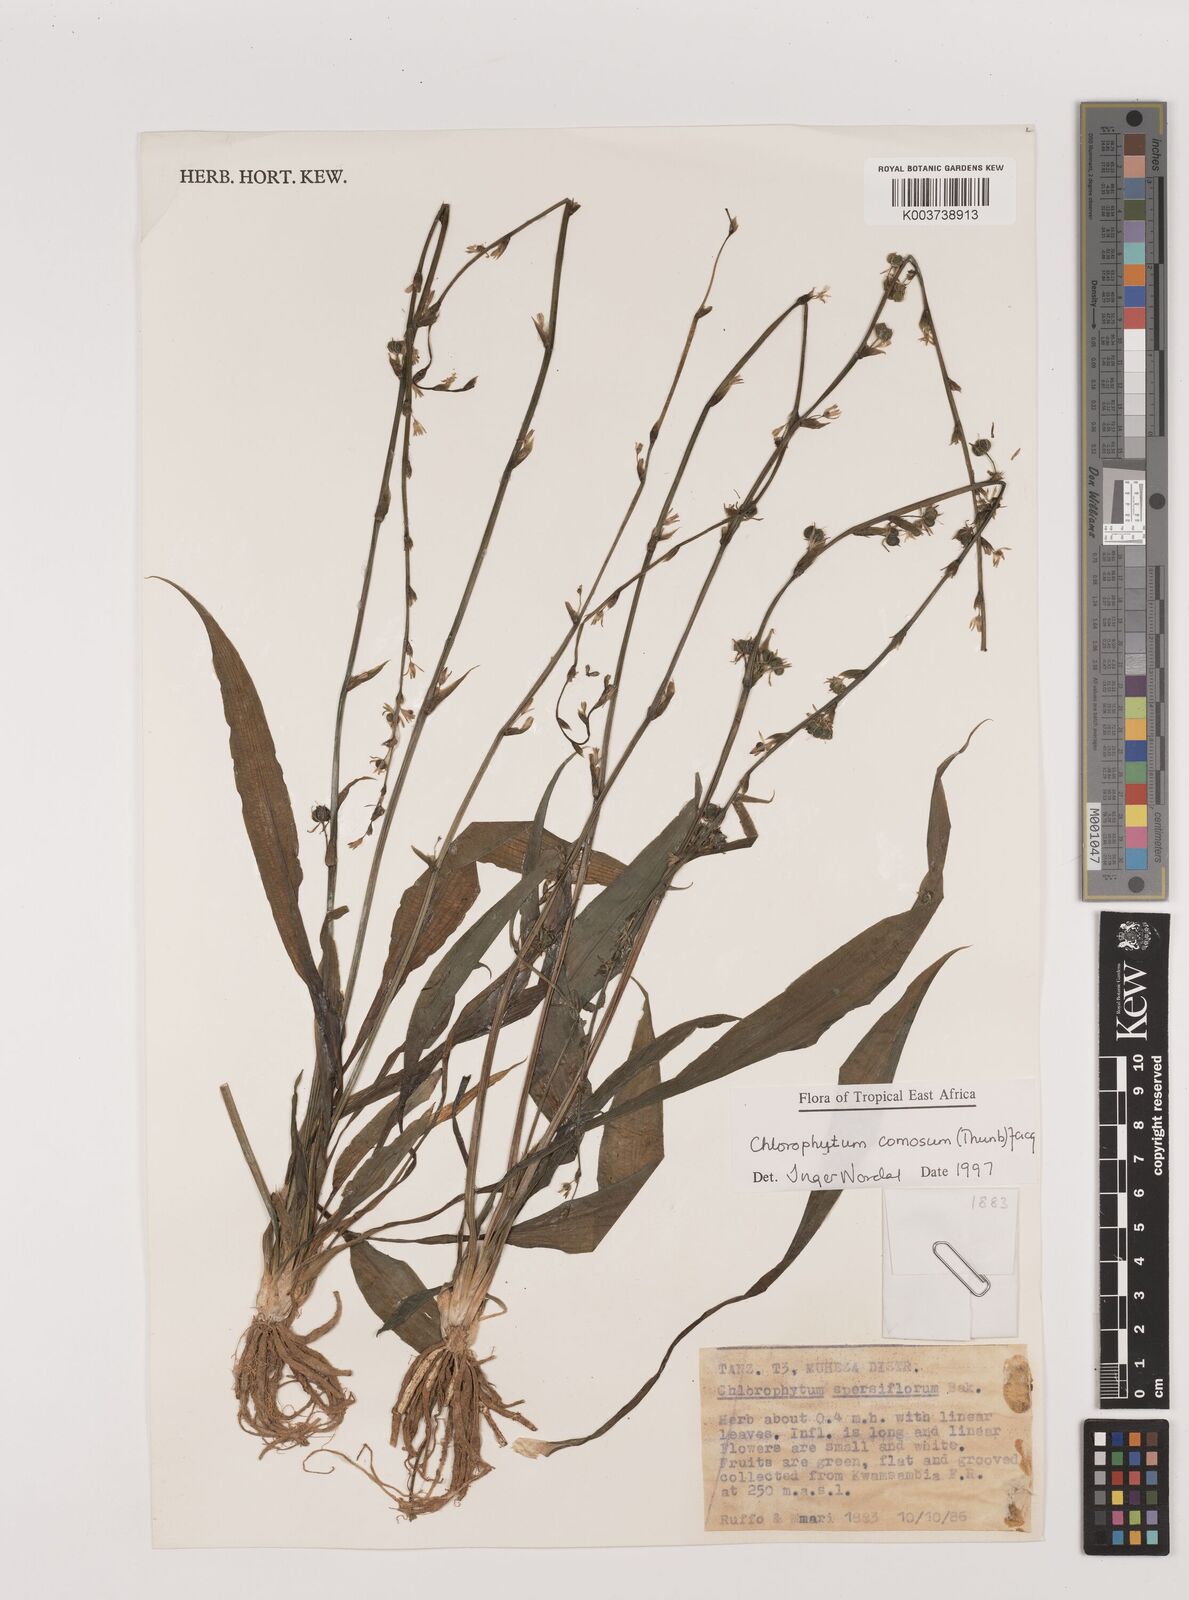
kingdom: Plantae
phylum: Tracheophyta
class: Liliopsida
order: Asparagales
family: Asparagaceae
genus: Chlorophytum
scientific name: Chlorophytum comosum
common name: Spider plant
